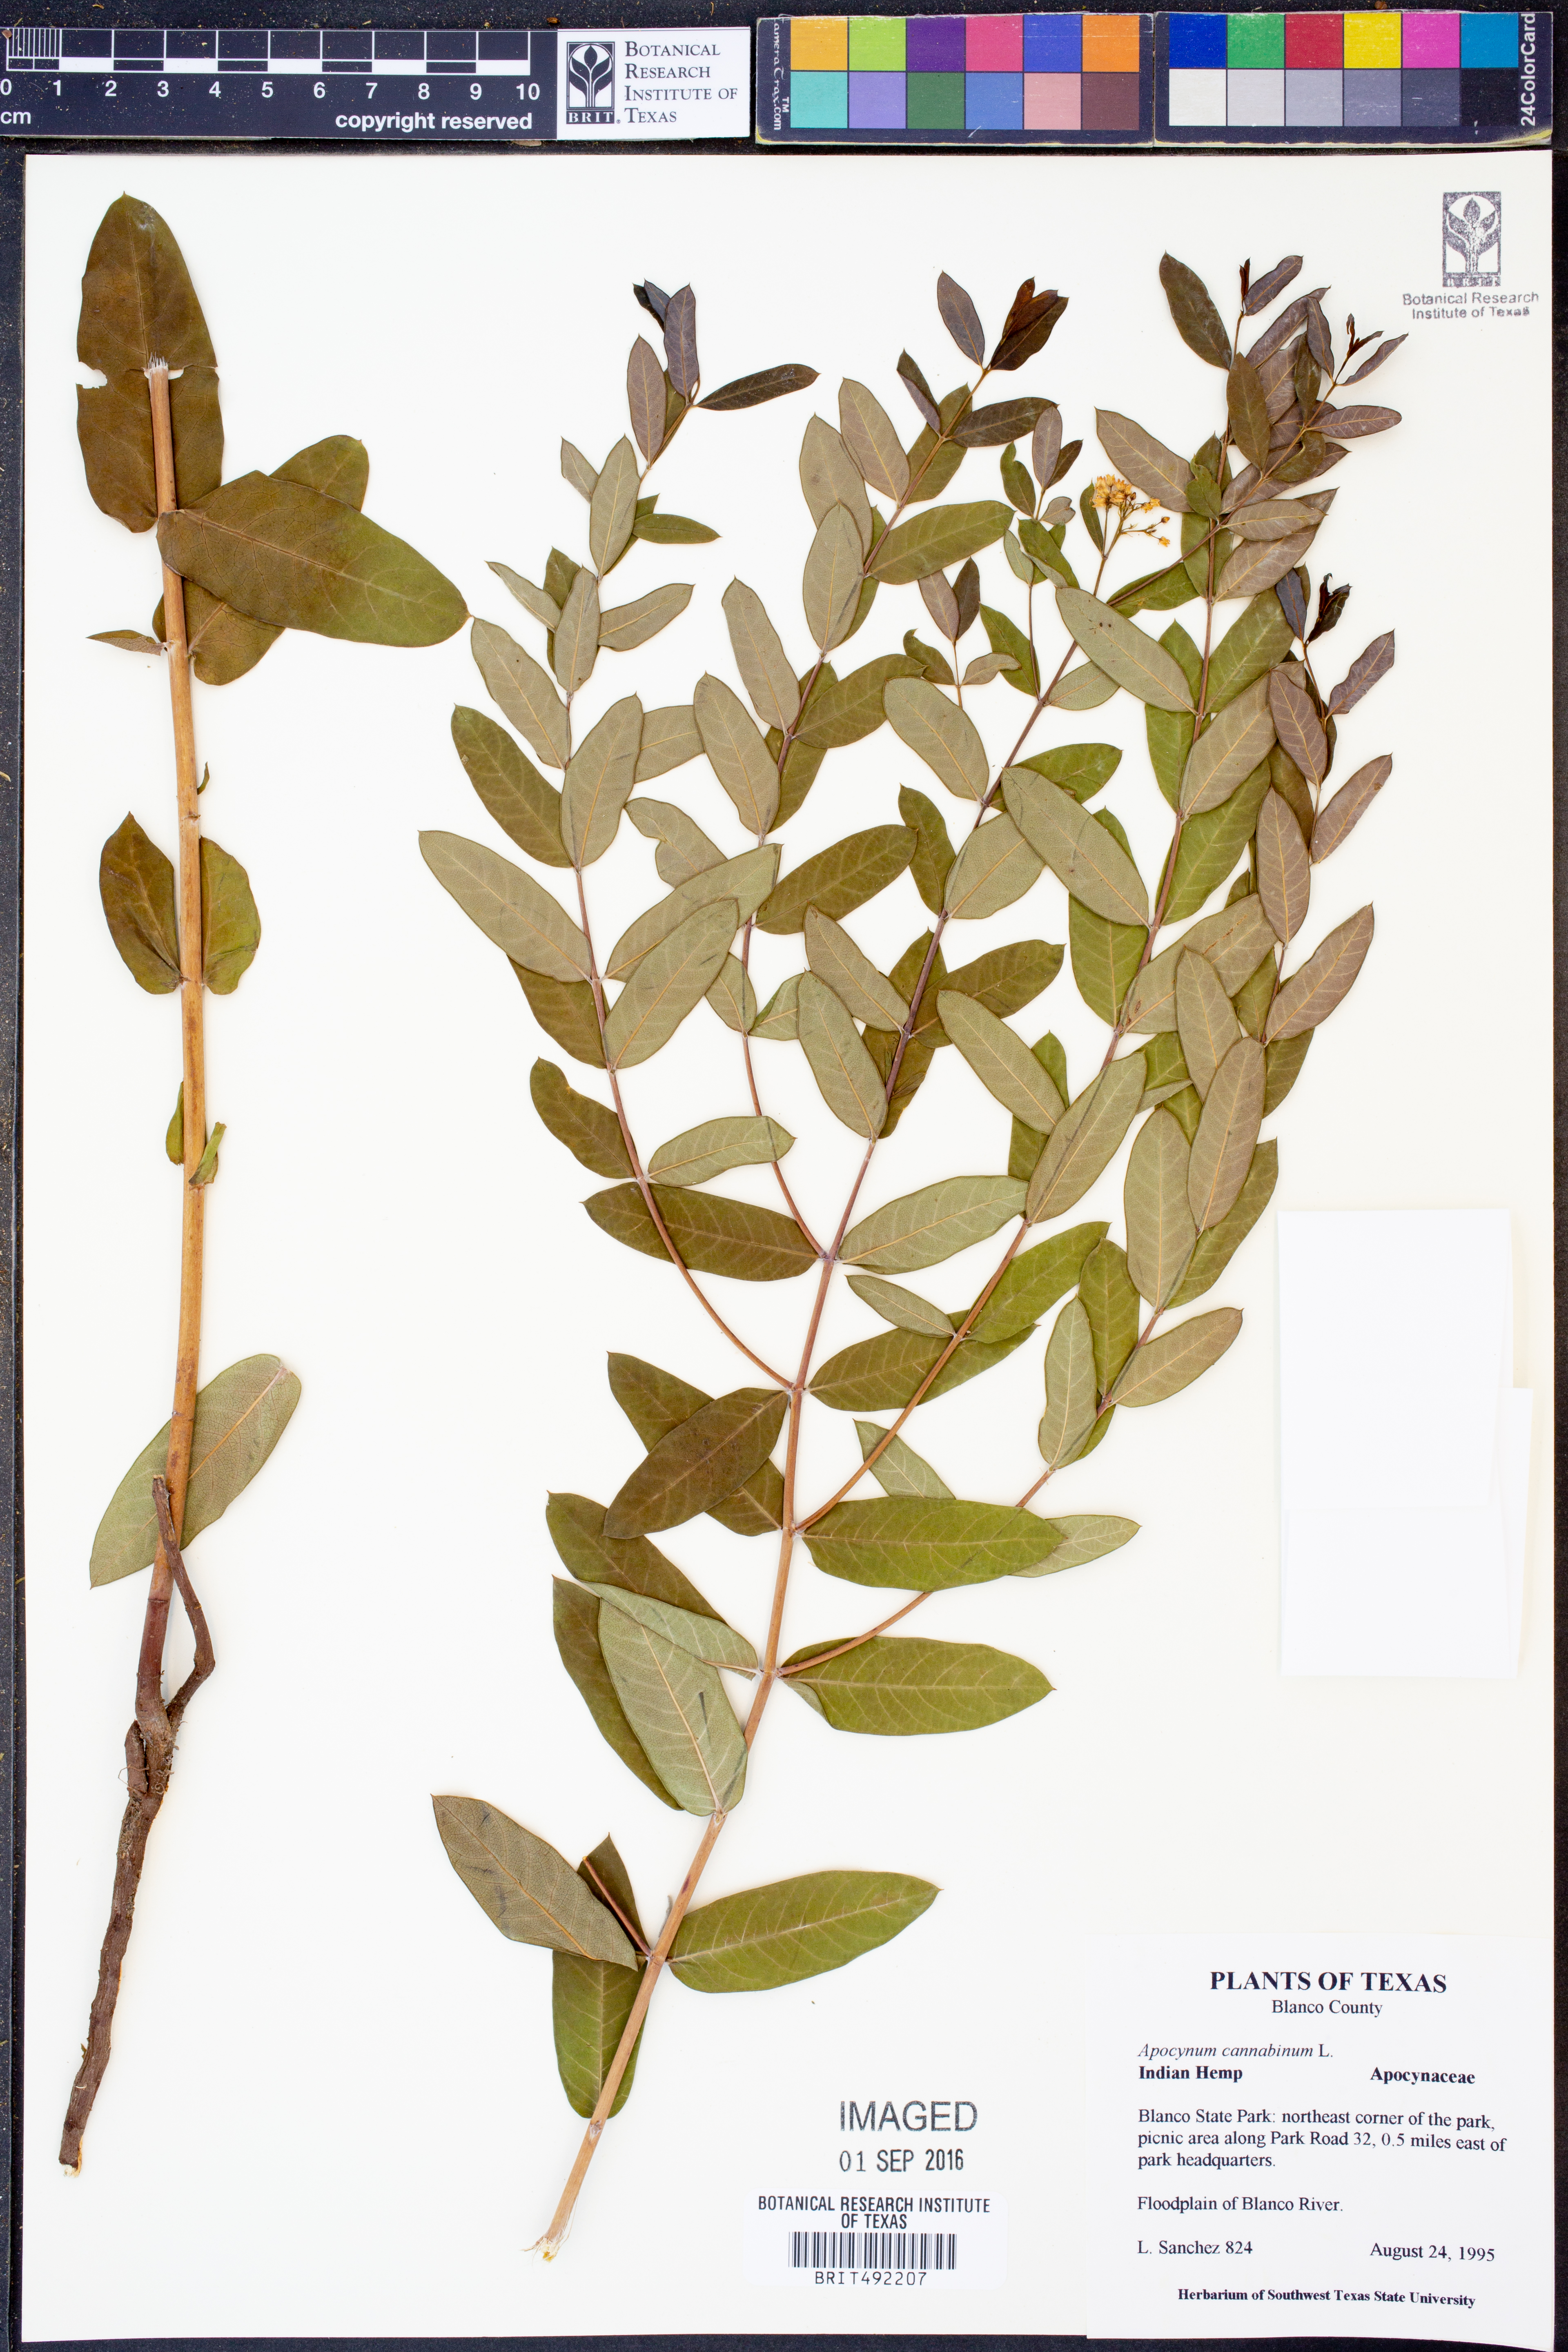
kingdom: Plantae
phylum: Tracheophyta
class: Magnoliopsida
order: Gentianales
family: Apocynaceae
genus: Apocynum
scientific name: Apocynum cannabinum
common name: Hemp dogbane
